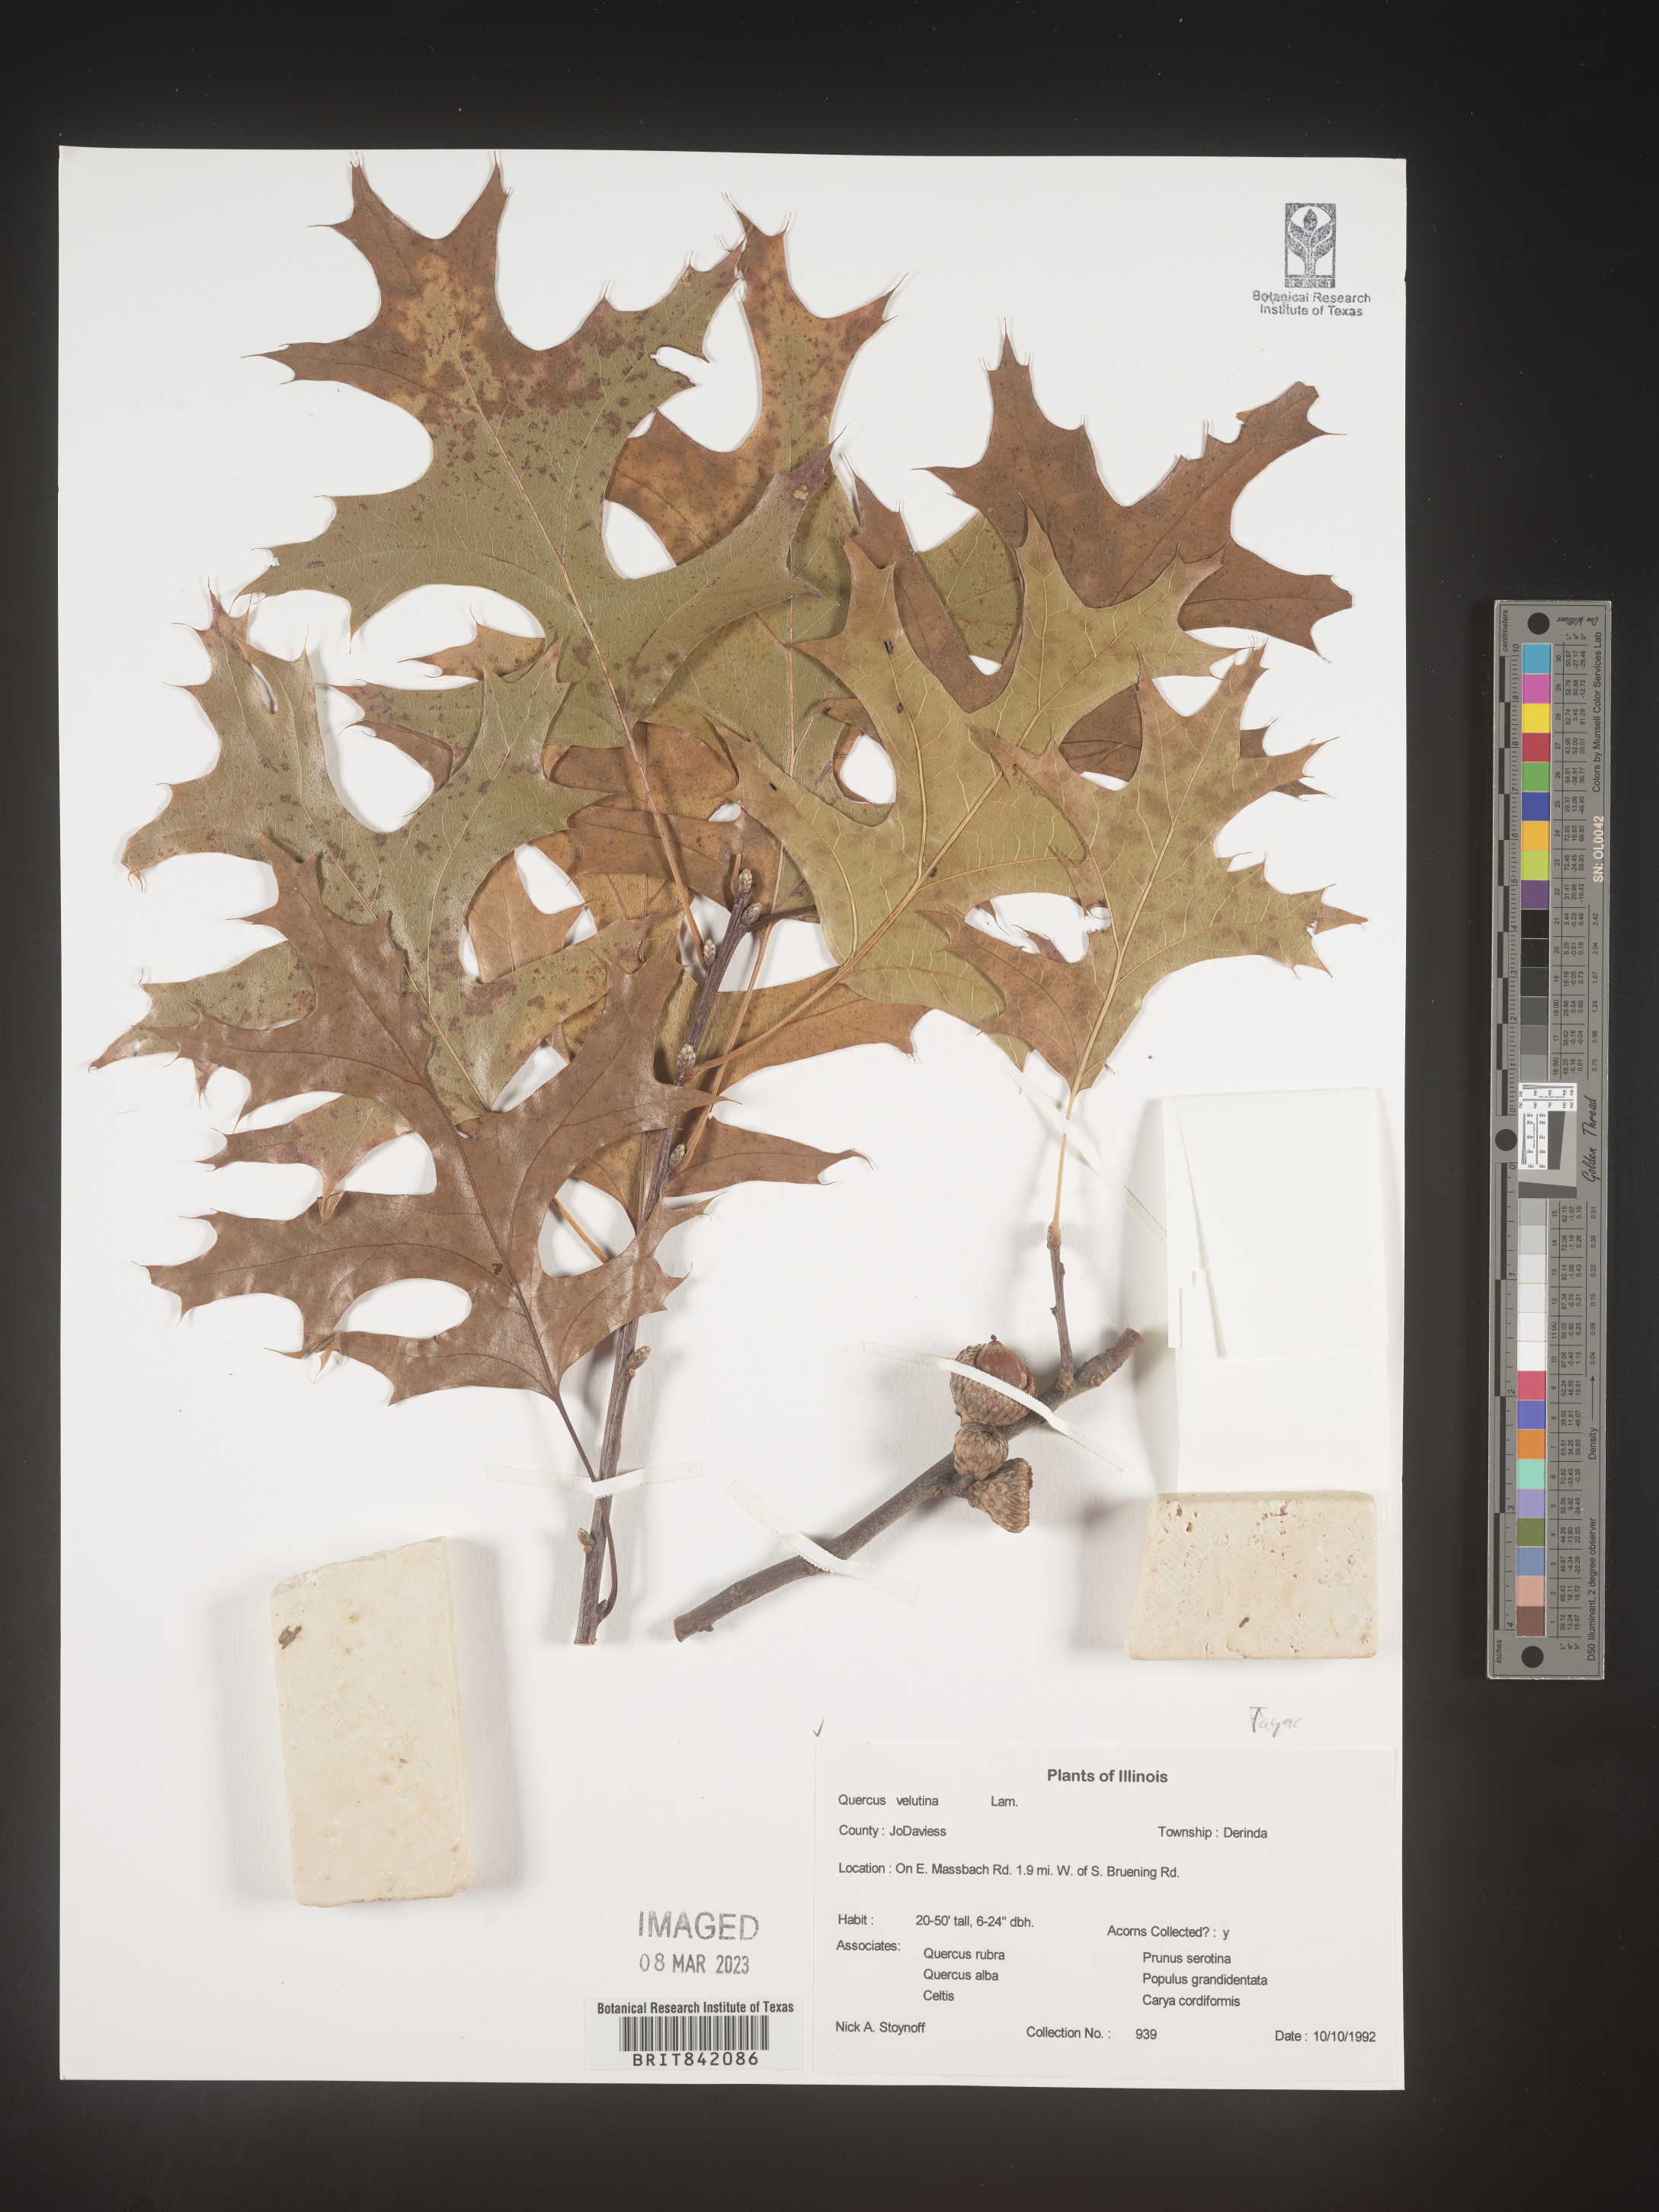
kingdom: Plantae
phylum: Tracheophyta
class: Magnoliopsida
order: Fagales
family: Fagaceae
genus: Quercus
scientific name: Quercus velutina
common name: Black oak
